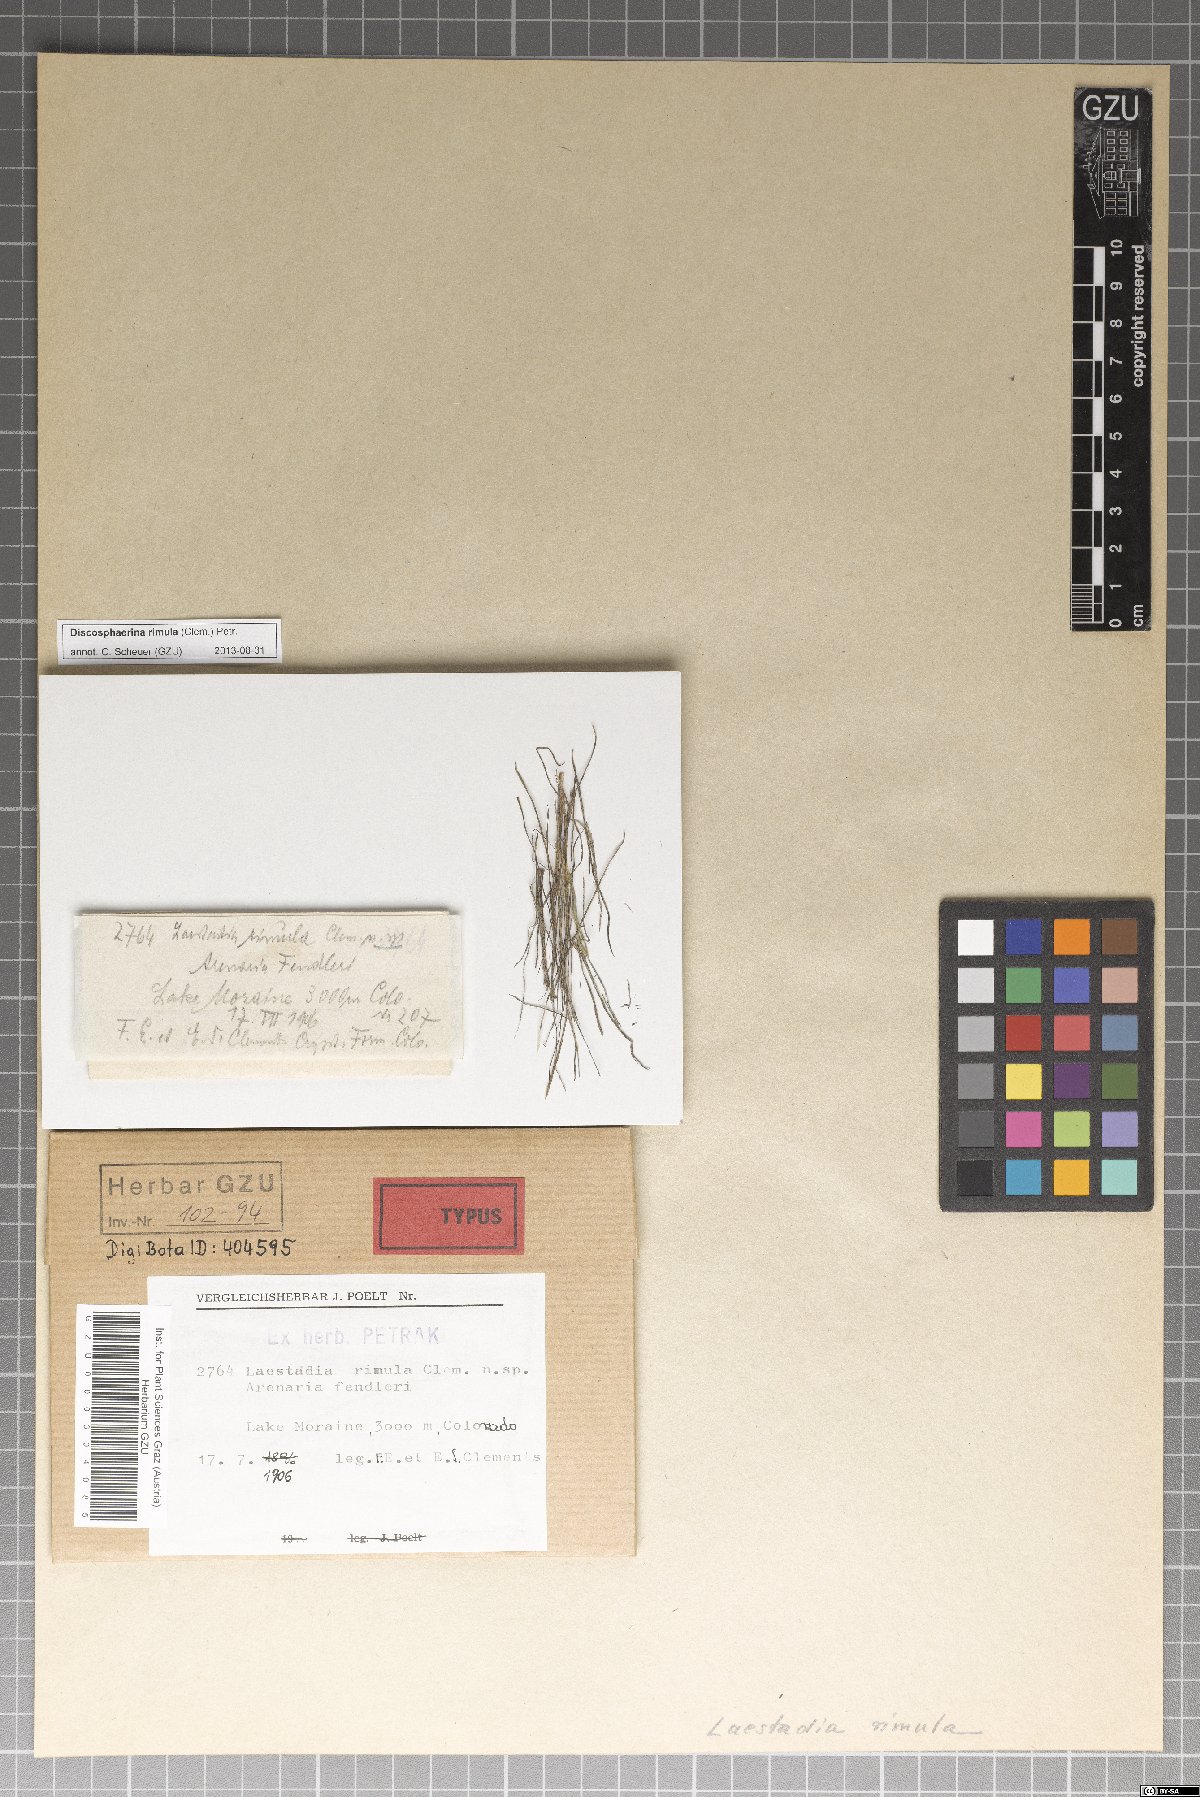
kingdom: Fungi
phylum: Ascomycota
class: Sordariomycetes
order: Diaporthales
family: Gnomoniaceae
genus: Laestadia
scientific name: Laestadia
